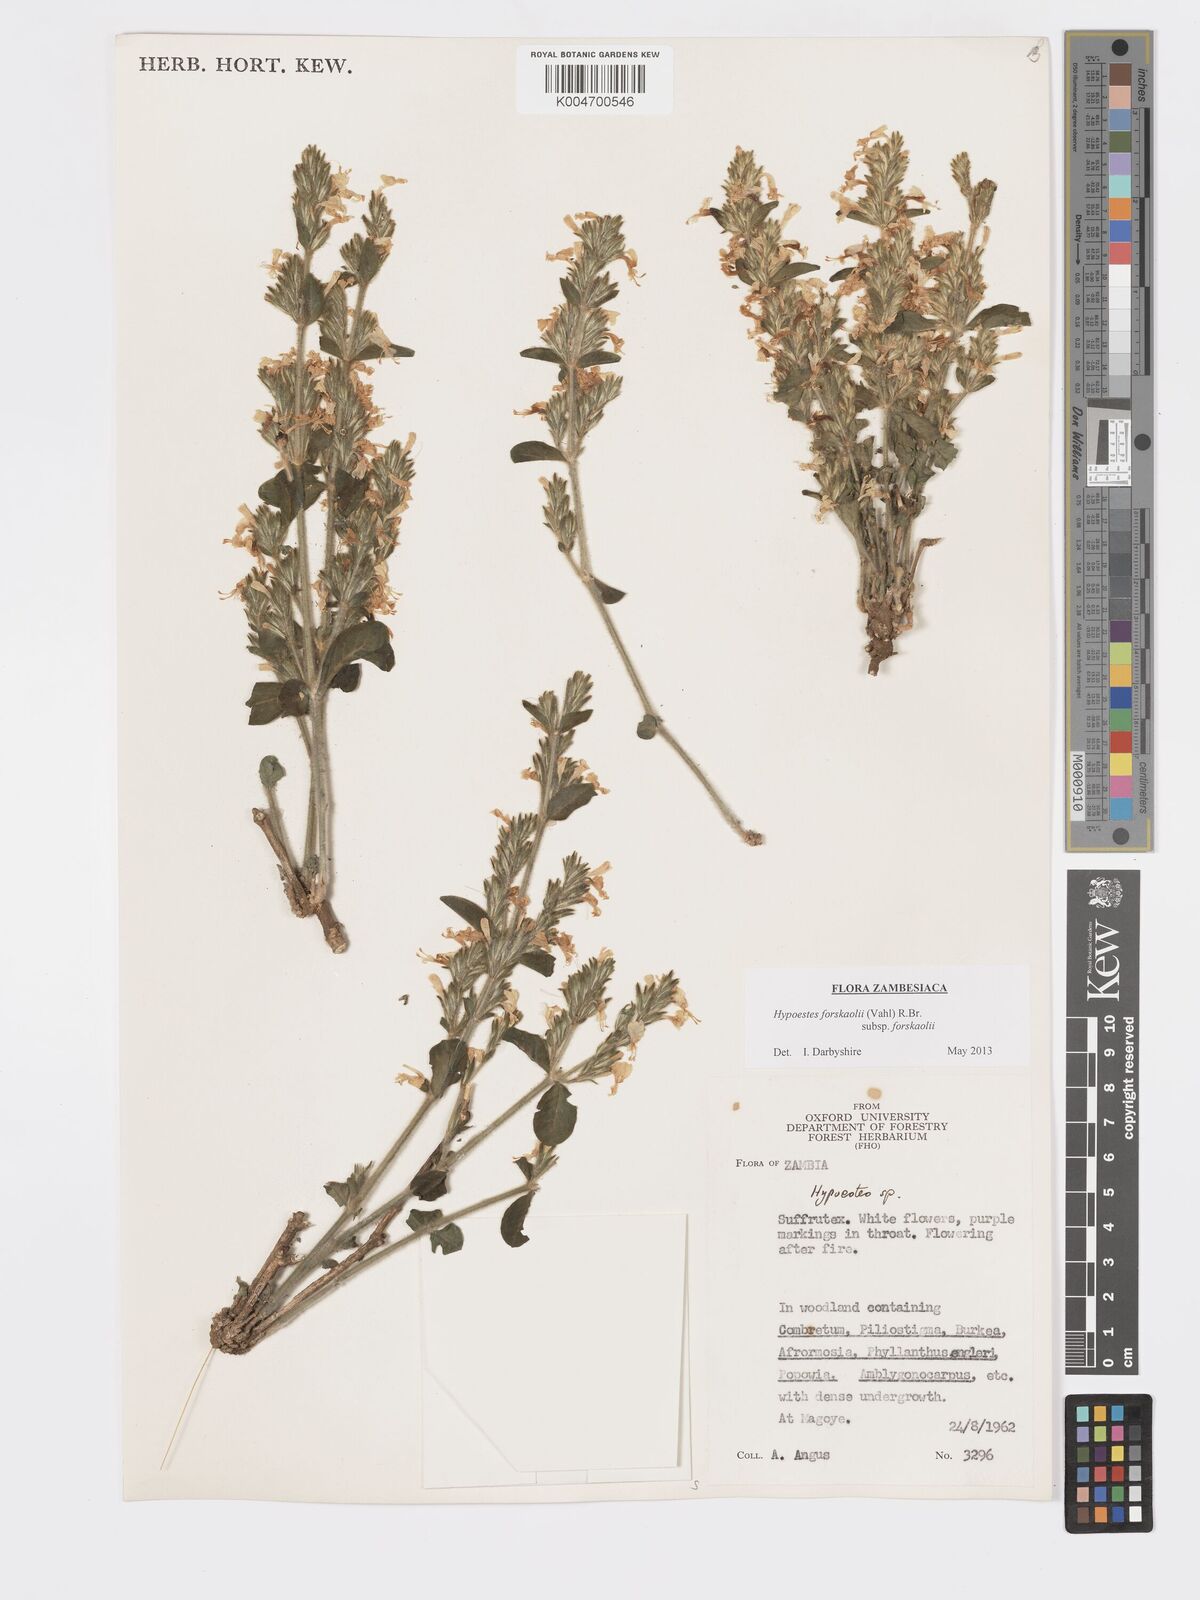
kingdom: Plantae
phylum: Tracheophyta
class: Magnoliopsida
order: Lamiales
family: Acanthaceae
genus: Hypoestes
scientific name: Hypoestes forskaolii
